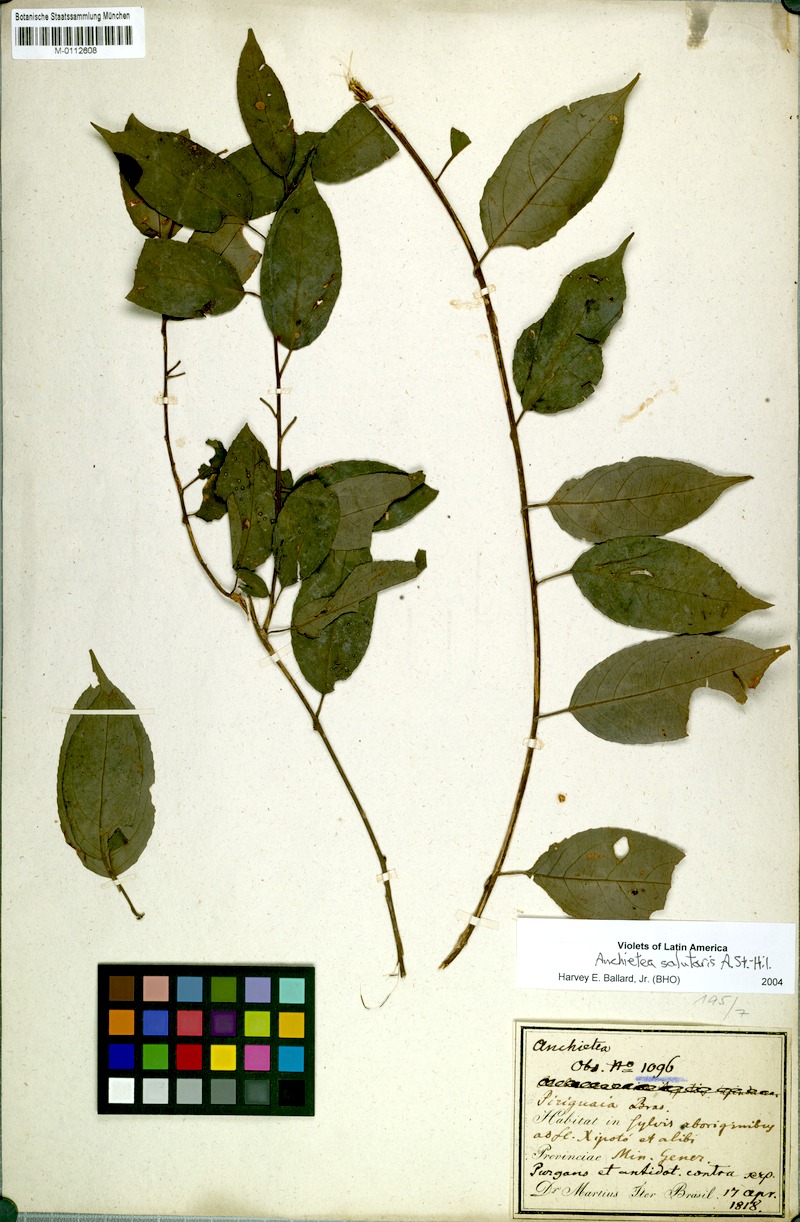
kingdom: Plantae
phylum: Tracheophyta
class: Magnoliopsida
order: Malpighiales
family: Violaceae
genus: Anchietea
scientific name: Anchietea pyrifolia
